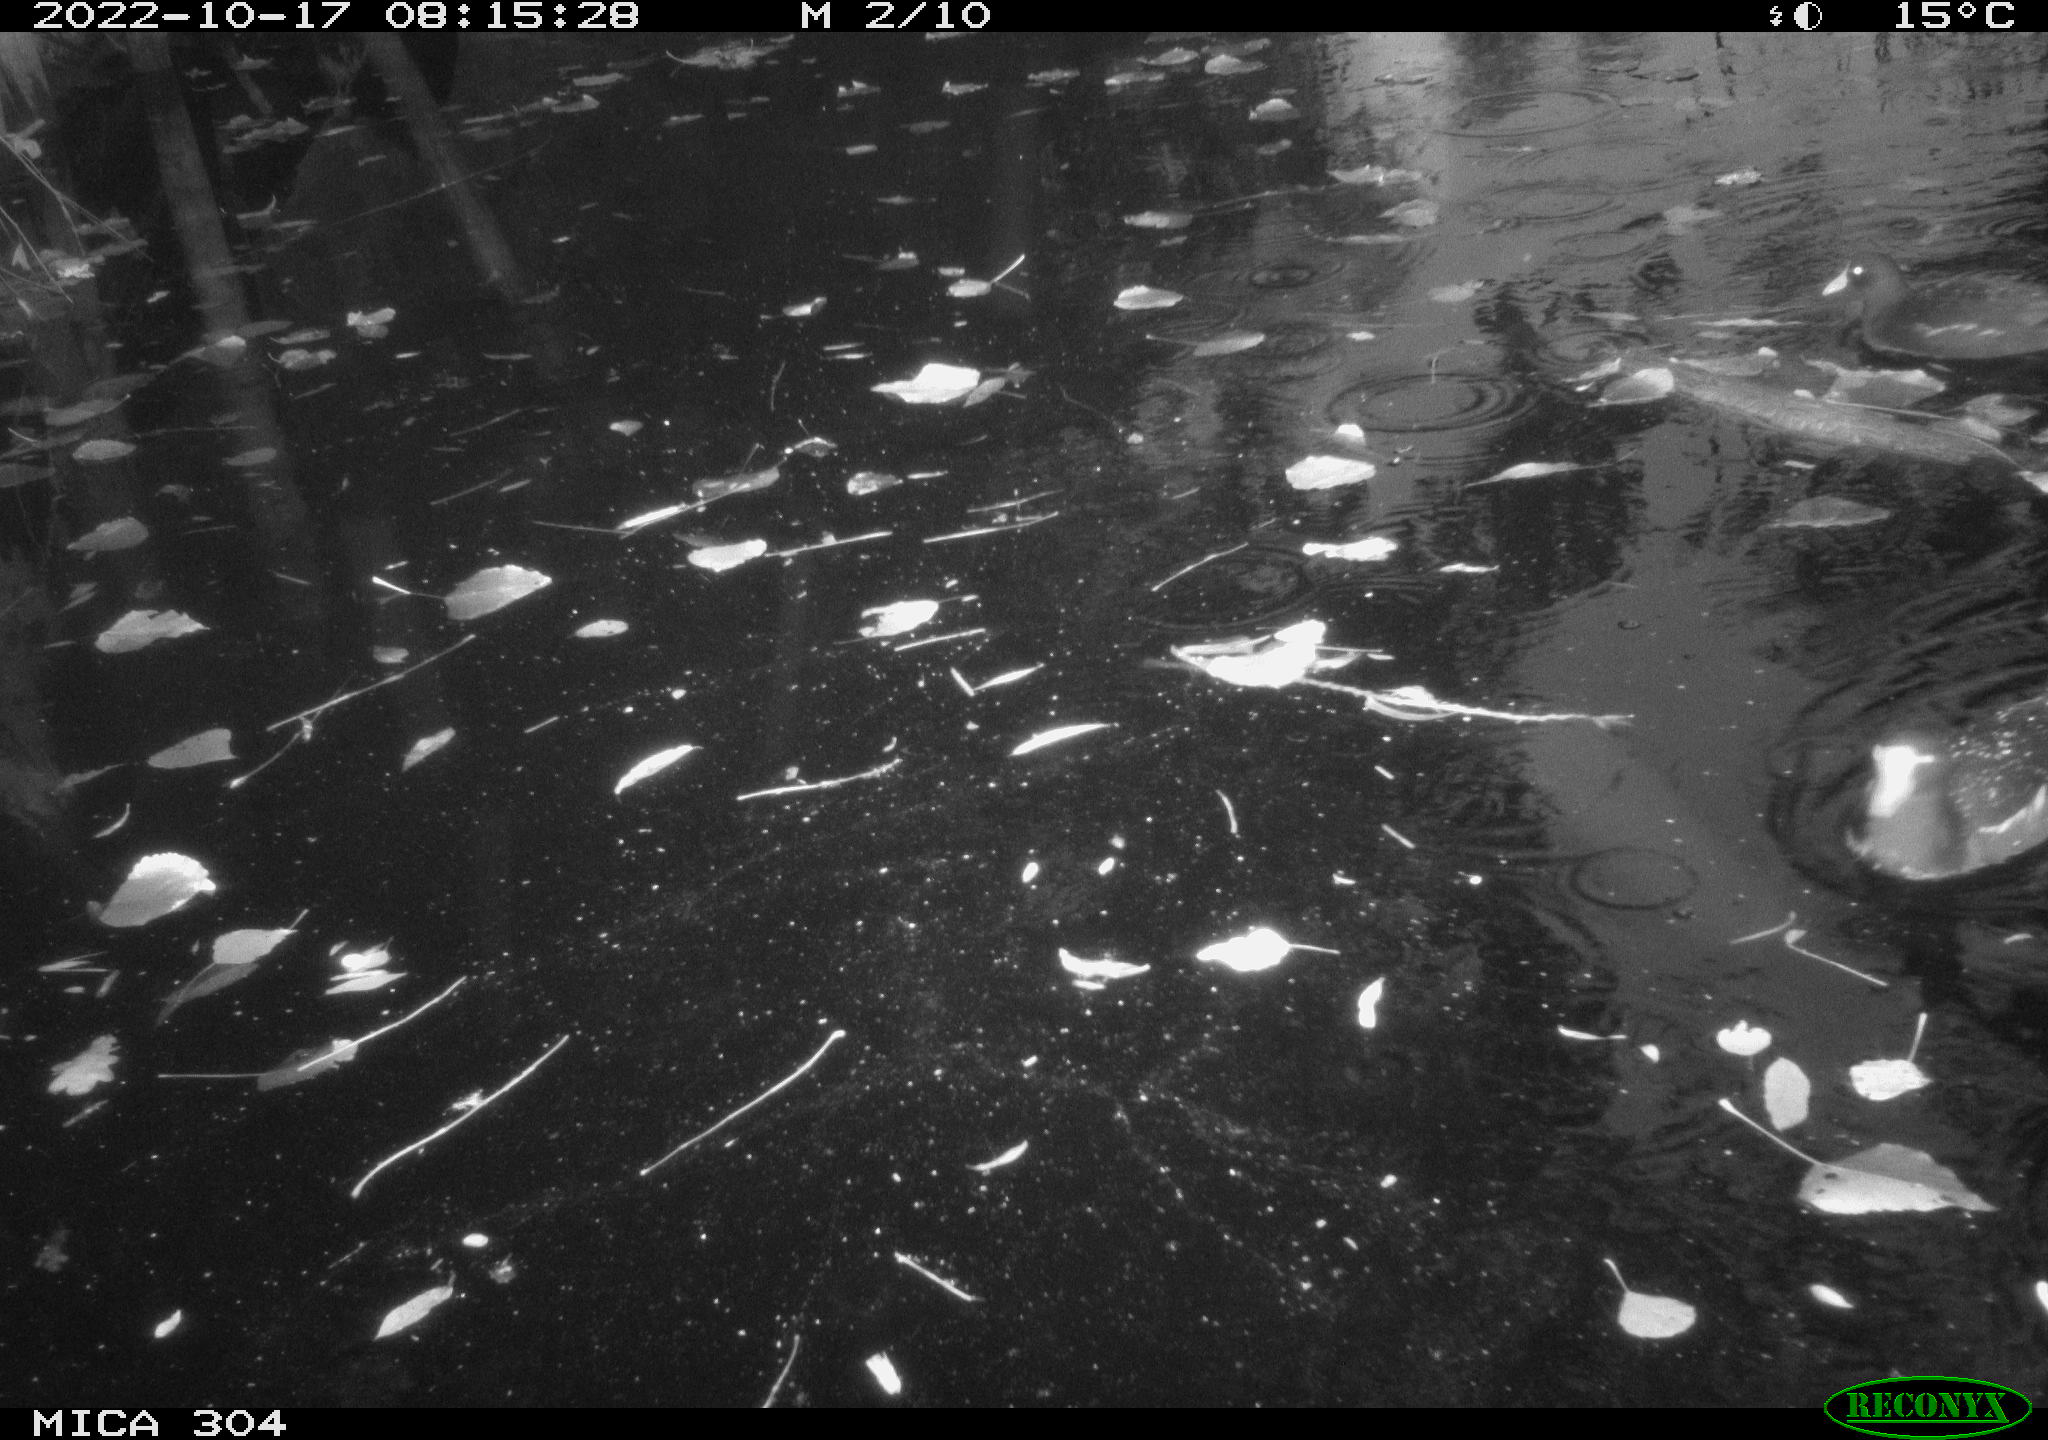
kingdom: Animalia
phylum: Chordata
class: Aves
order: Anseriformes
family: Anatidae
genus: Anas
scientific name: Anas
